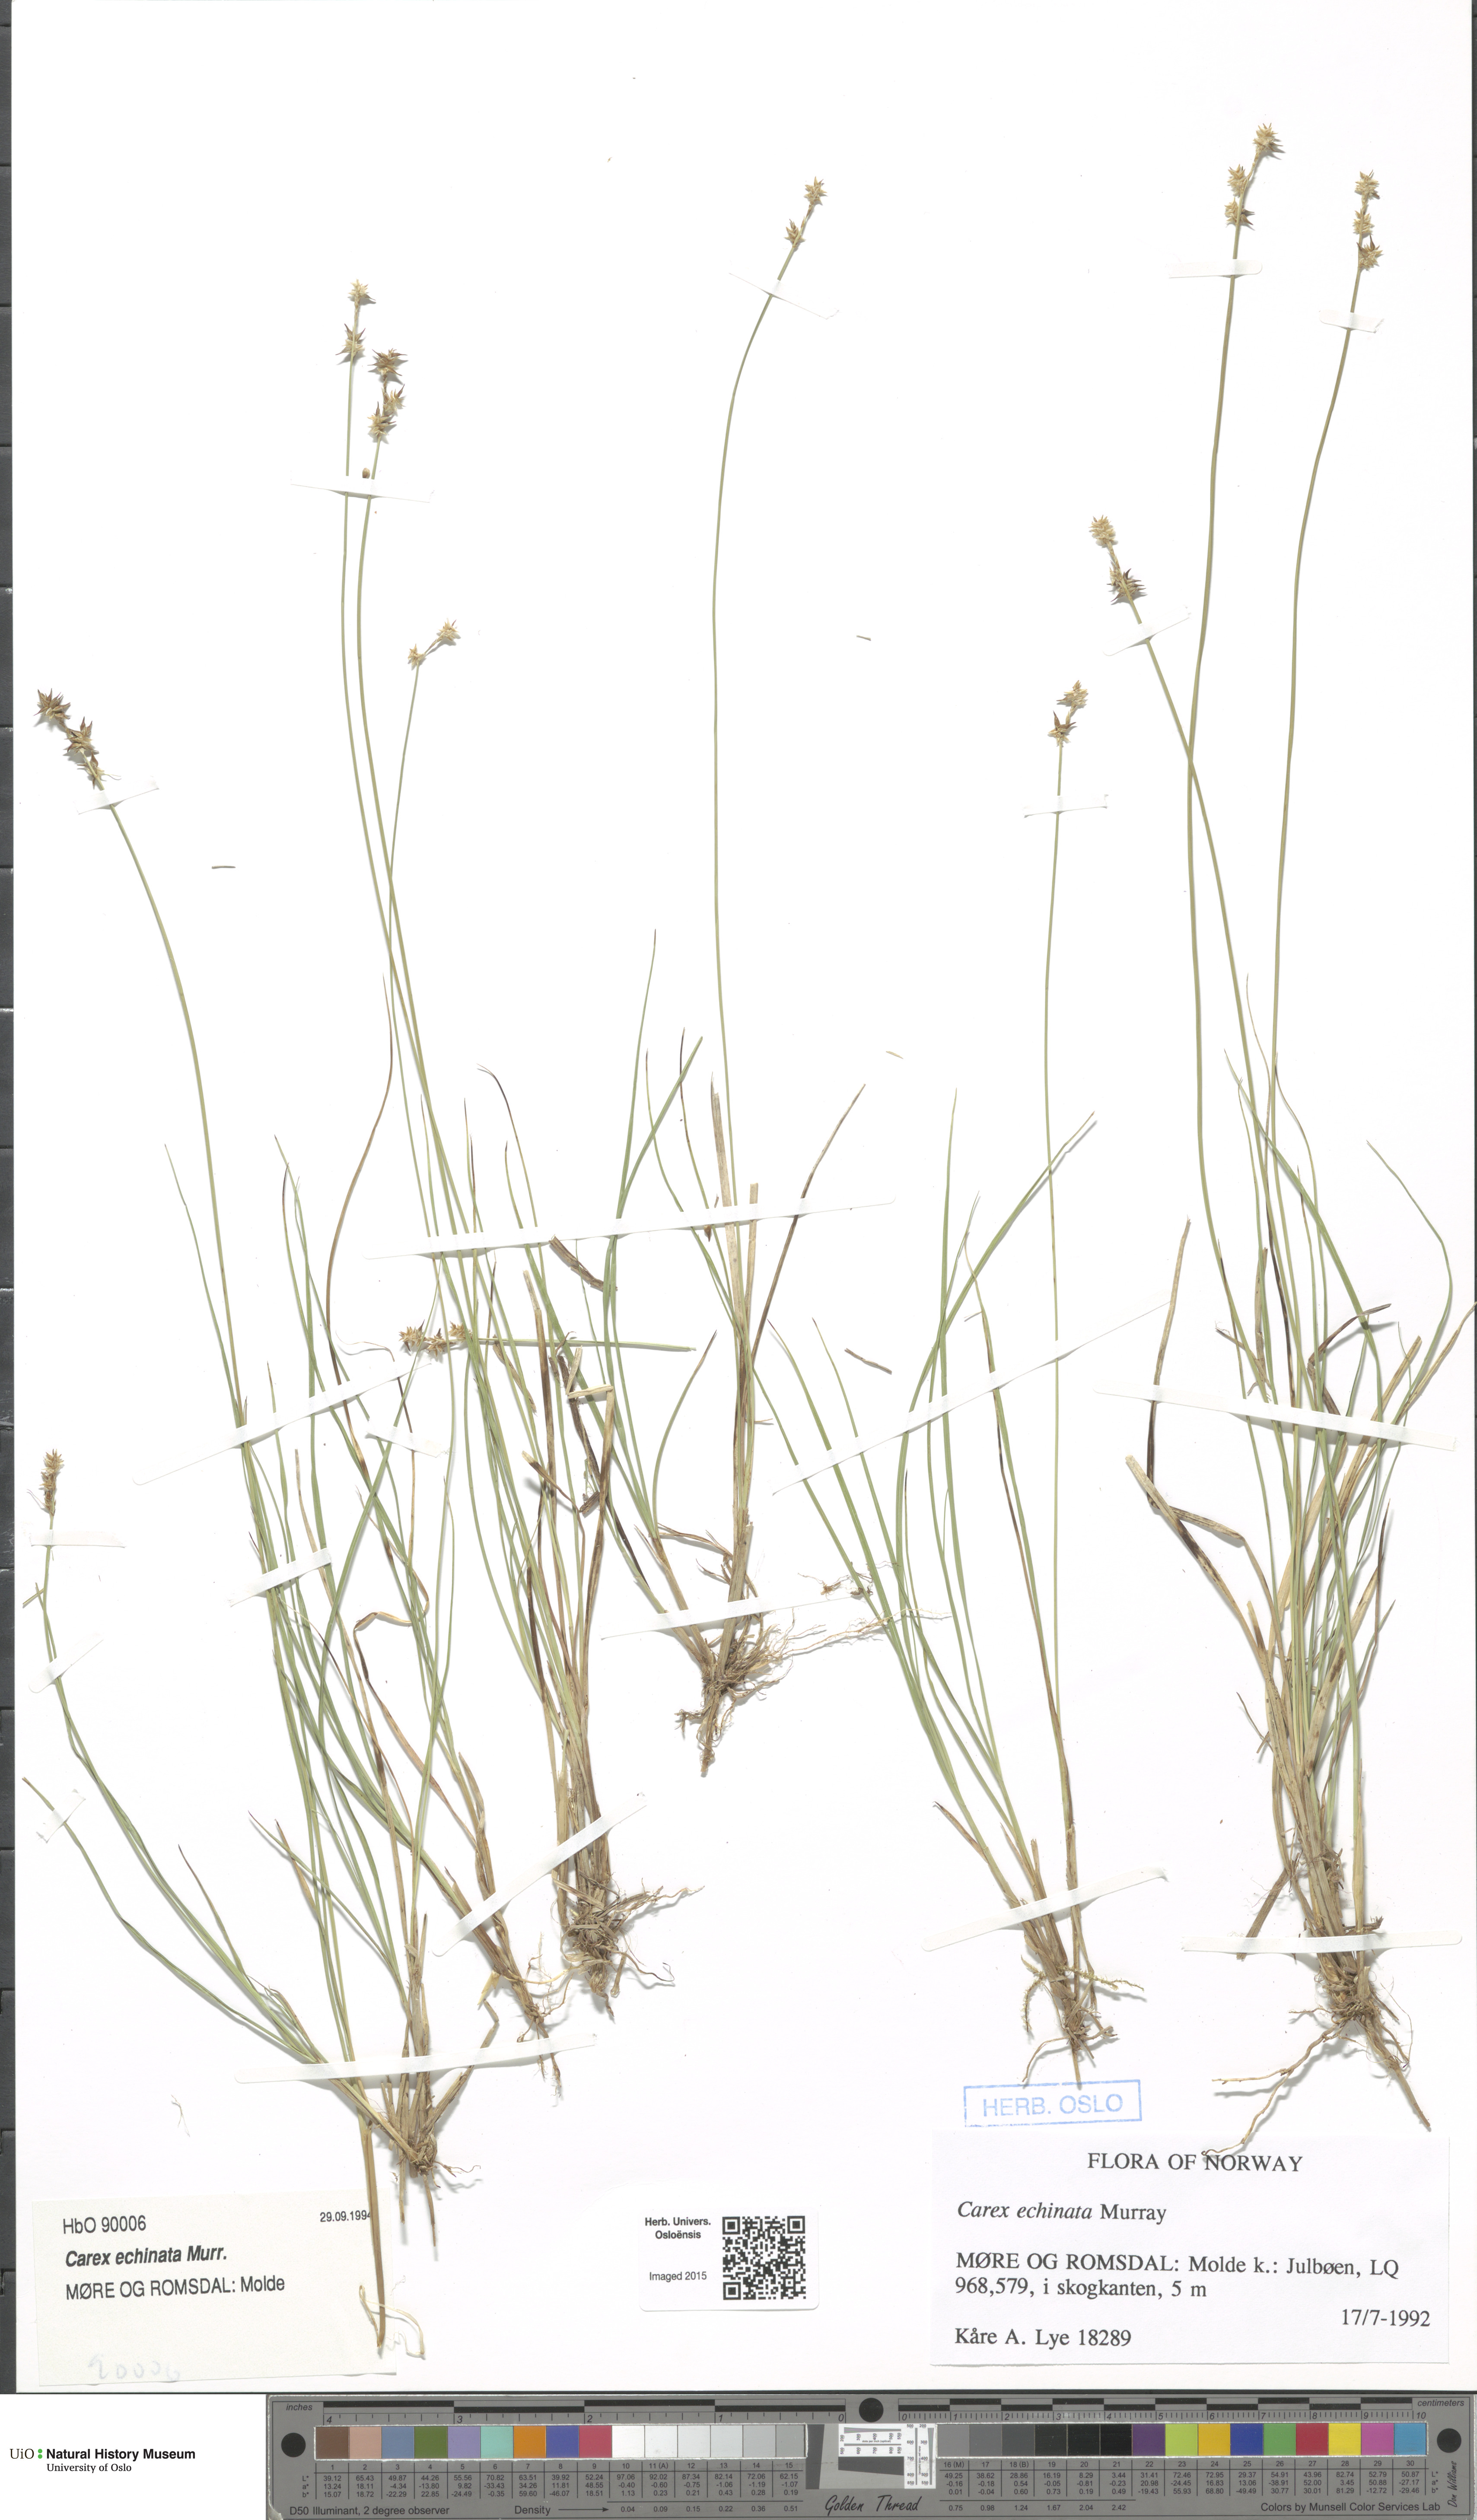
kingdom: Plantae
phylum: Tracheophyta
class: Liliopsida
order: Poales
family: Cyperaceae
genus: Carex
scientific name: Carex echinata
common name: Star sedge
